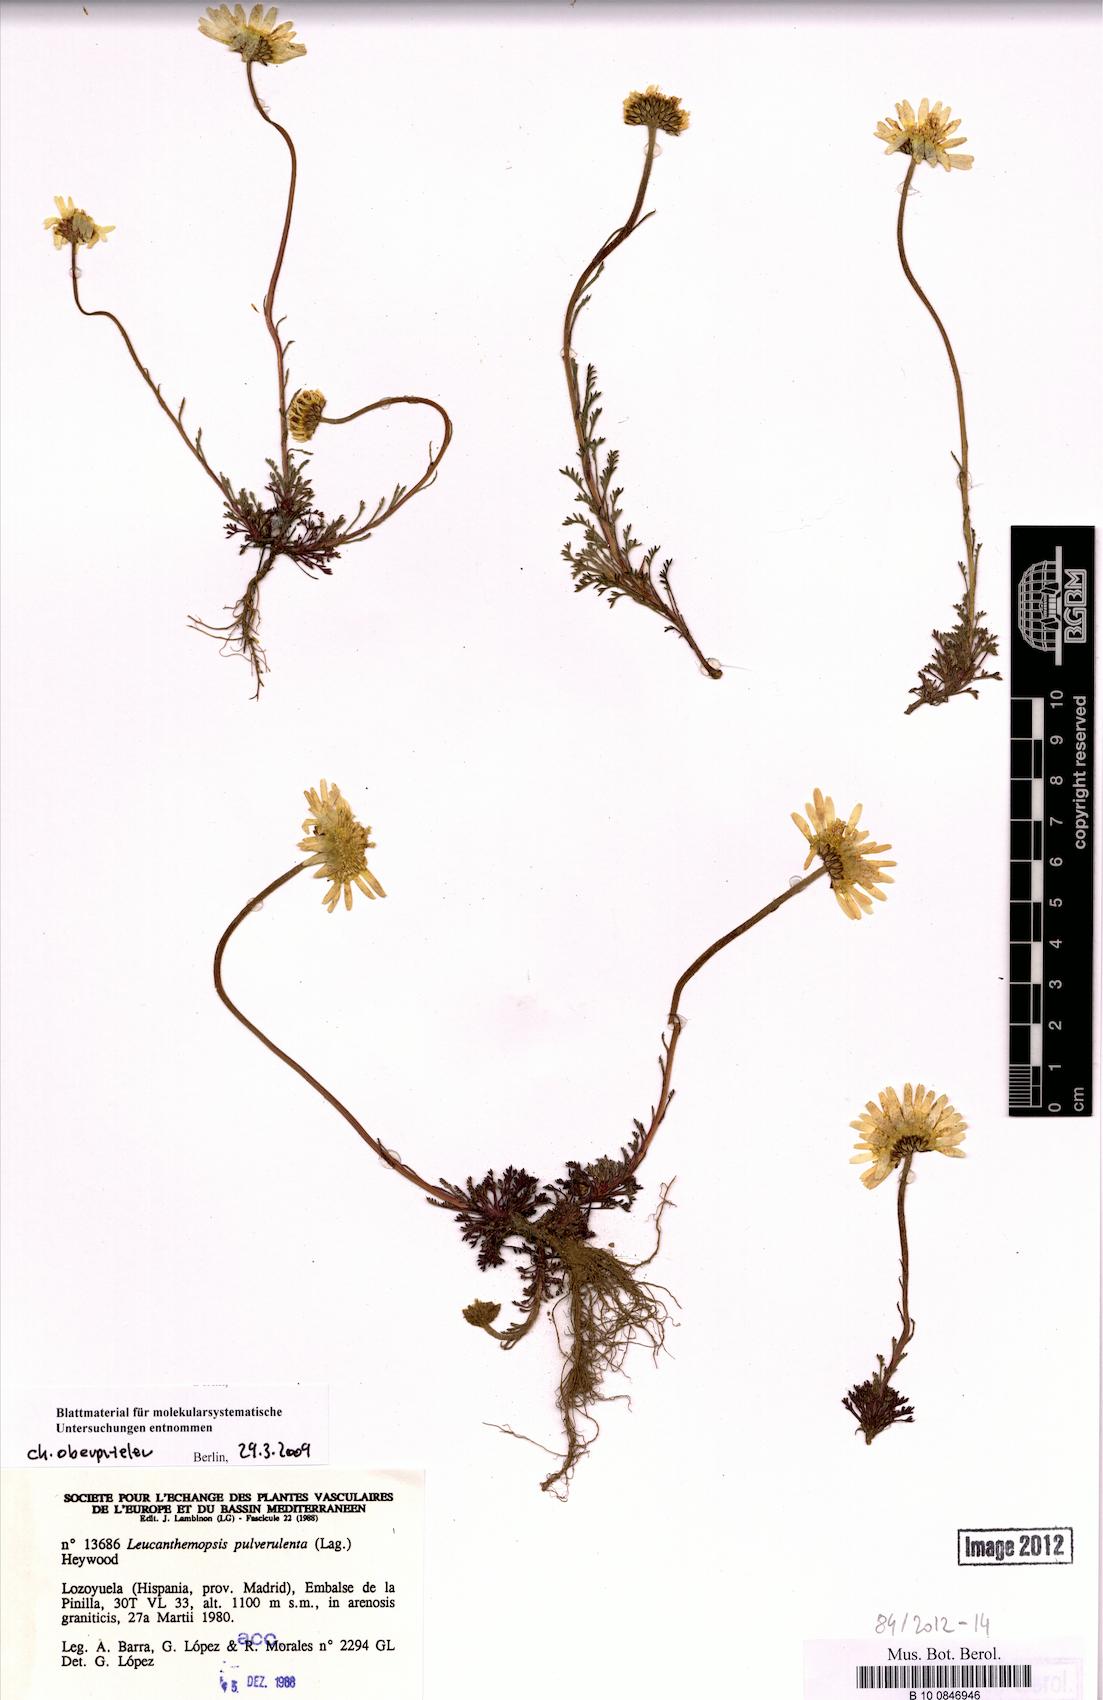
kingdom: Plantae
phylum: Tracheophyta
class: Magnoliopsida
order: Asterales
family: Asteraceae
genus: Leucanthemopsis
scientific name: Leucanthemopsis pulverulenta
